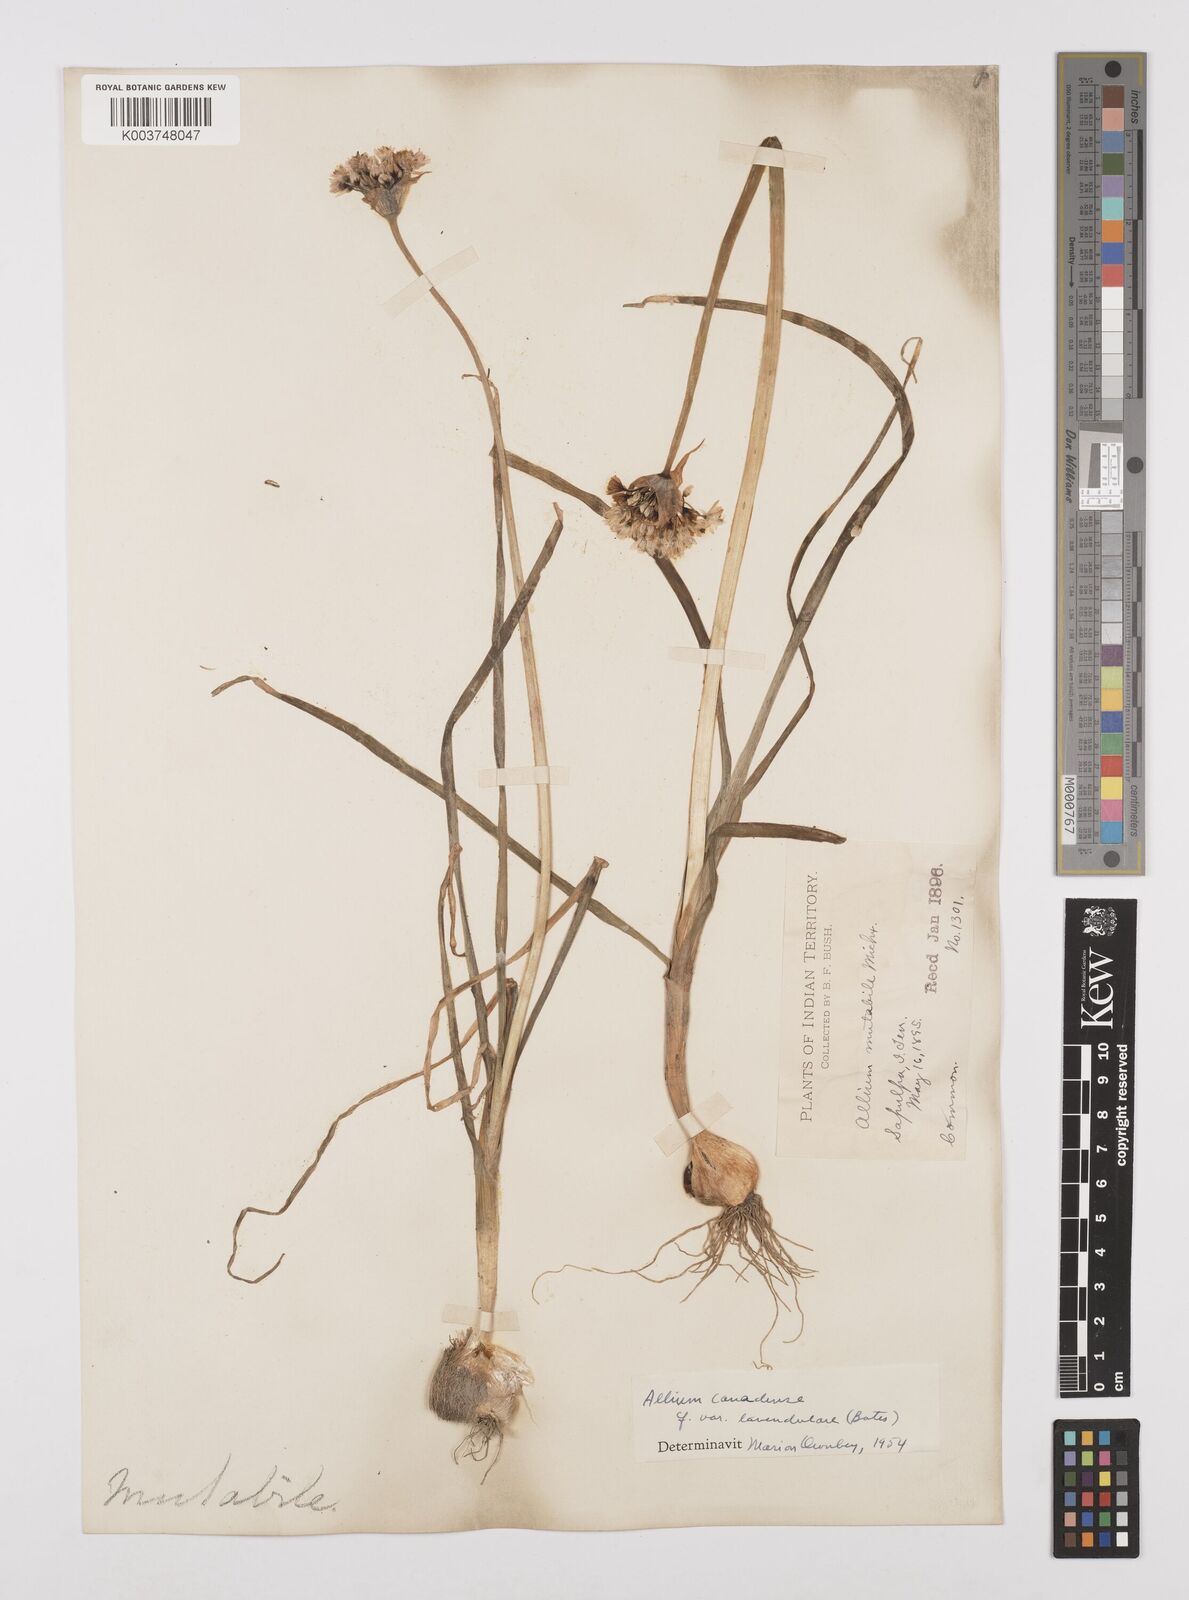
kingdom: Plantae
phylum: Tracheophyta
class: Liliopsida
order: Asparagales
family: Amaryllidaceae
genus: Allium
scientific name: Allium canadense
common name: Meadow garlic
